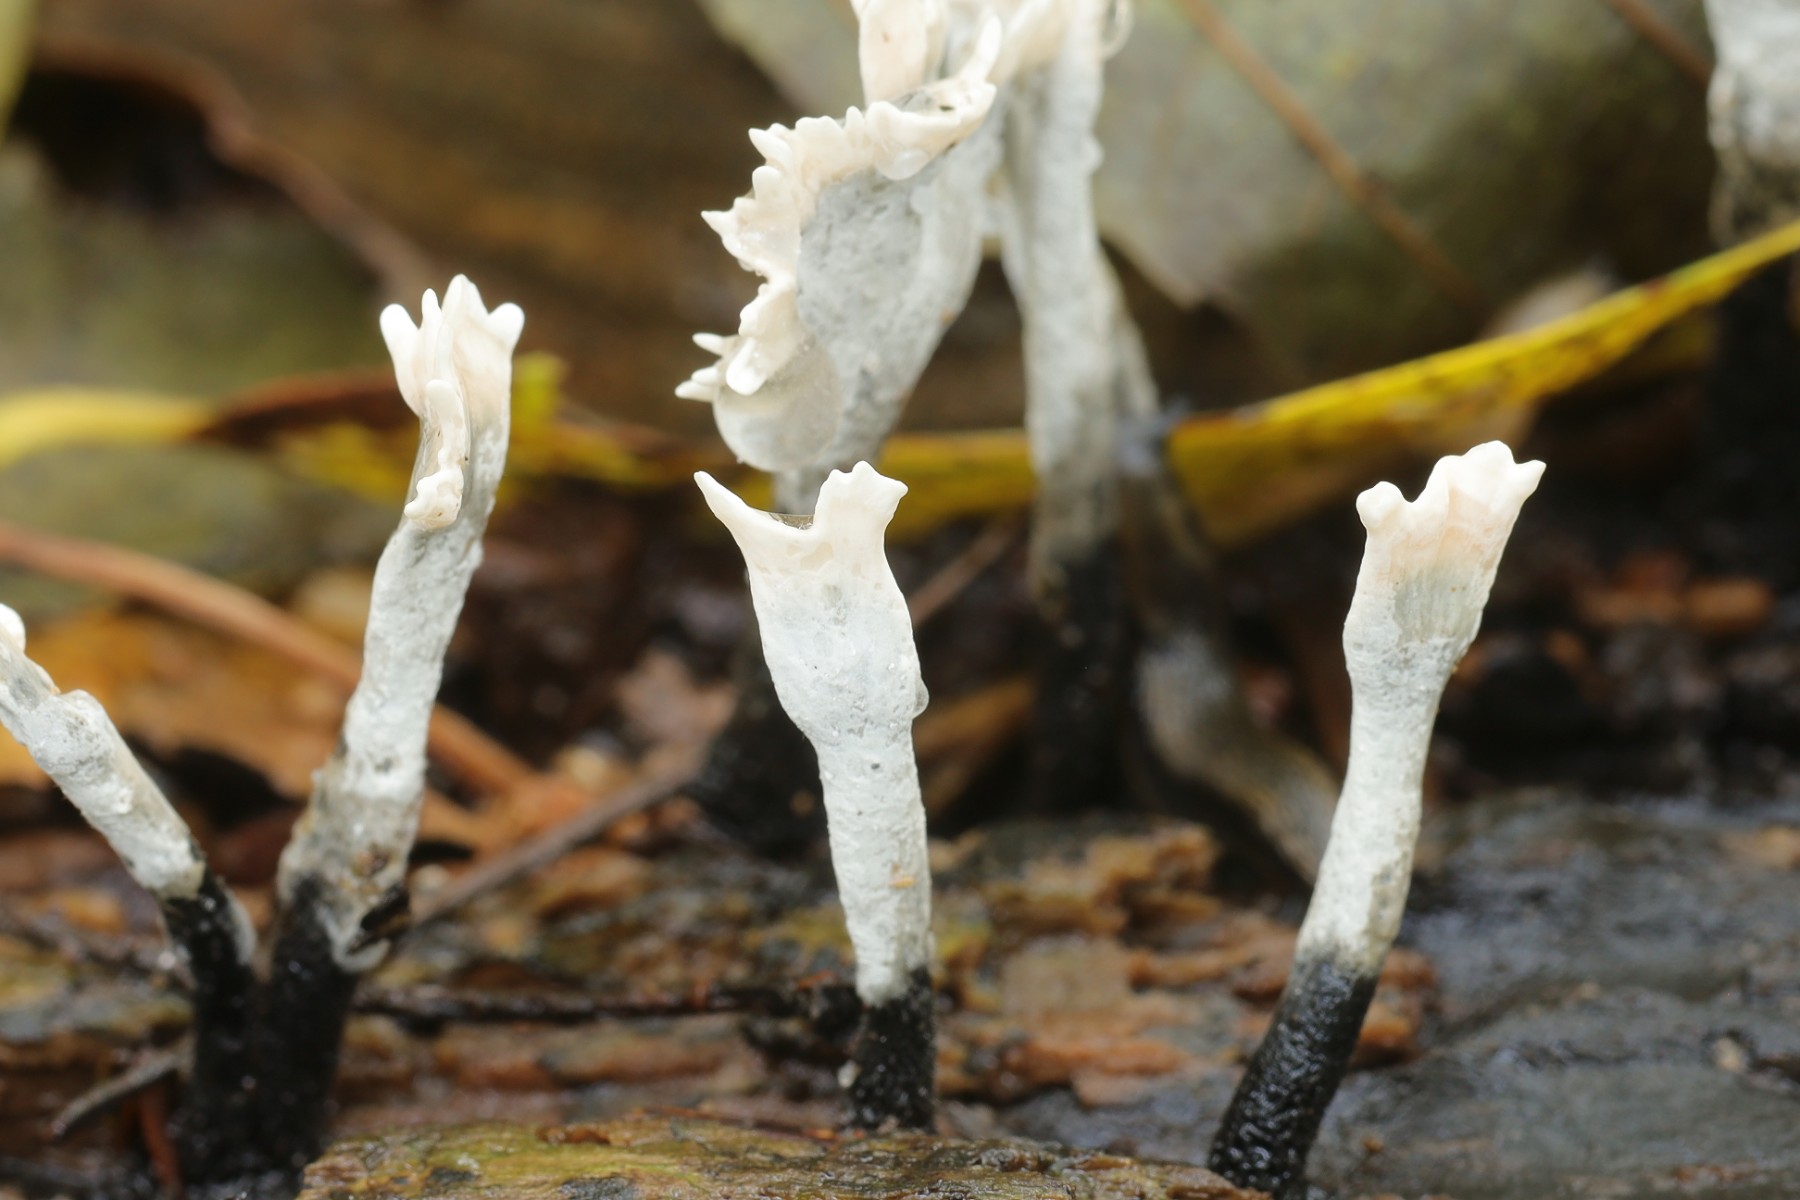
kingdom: Fungi
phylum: Ascomycota
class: Sordariomycetes
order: Xylariales
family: Xylariaceae
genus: Xylaria
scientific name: Xylaria hypoxylon
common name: grenet stødsvamp
